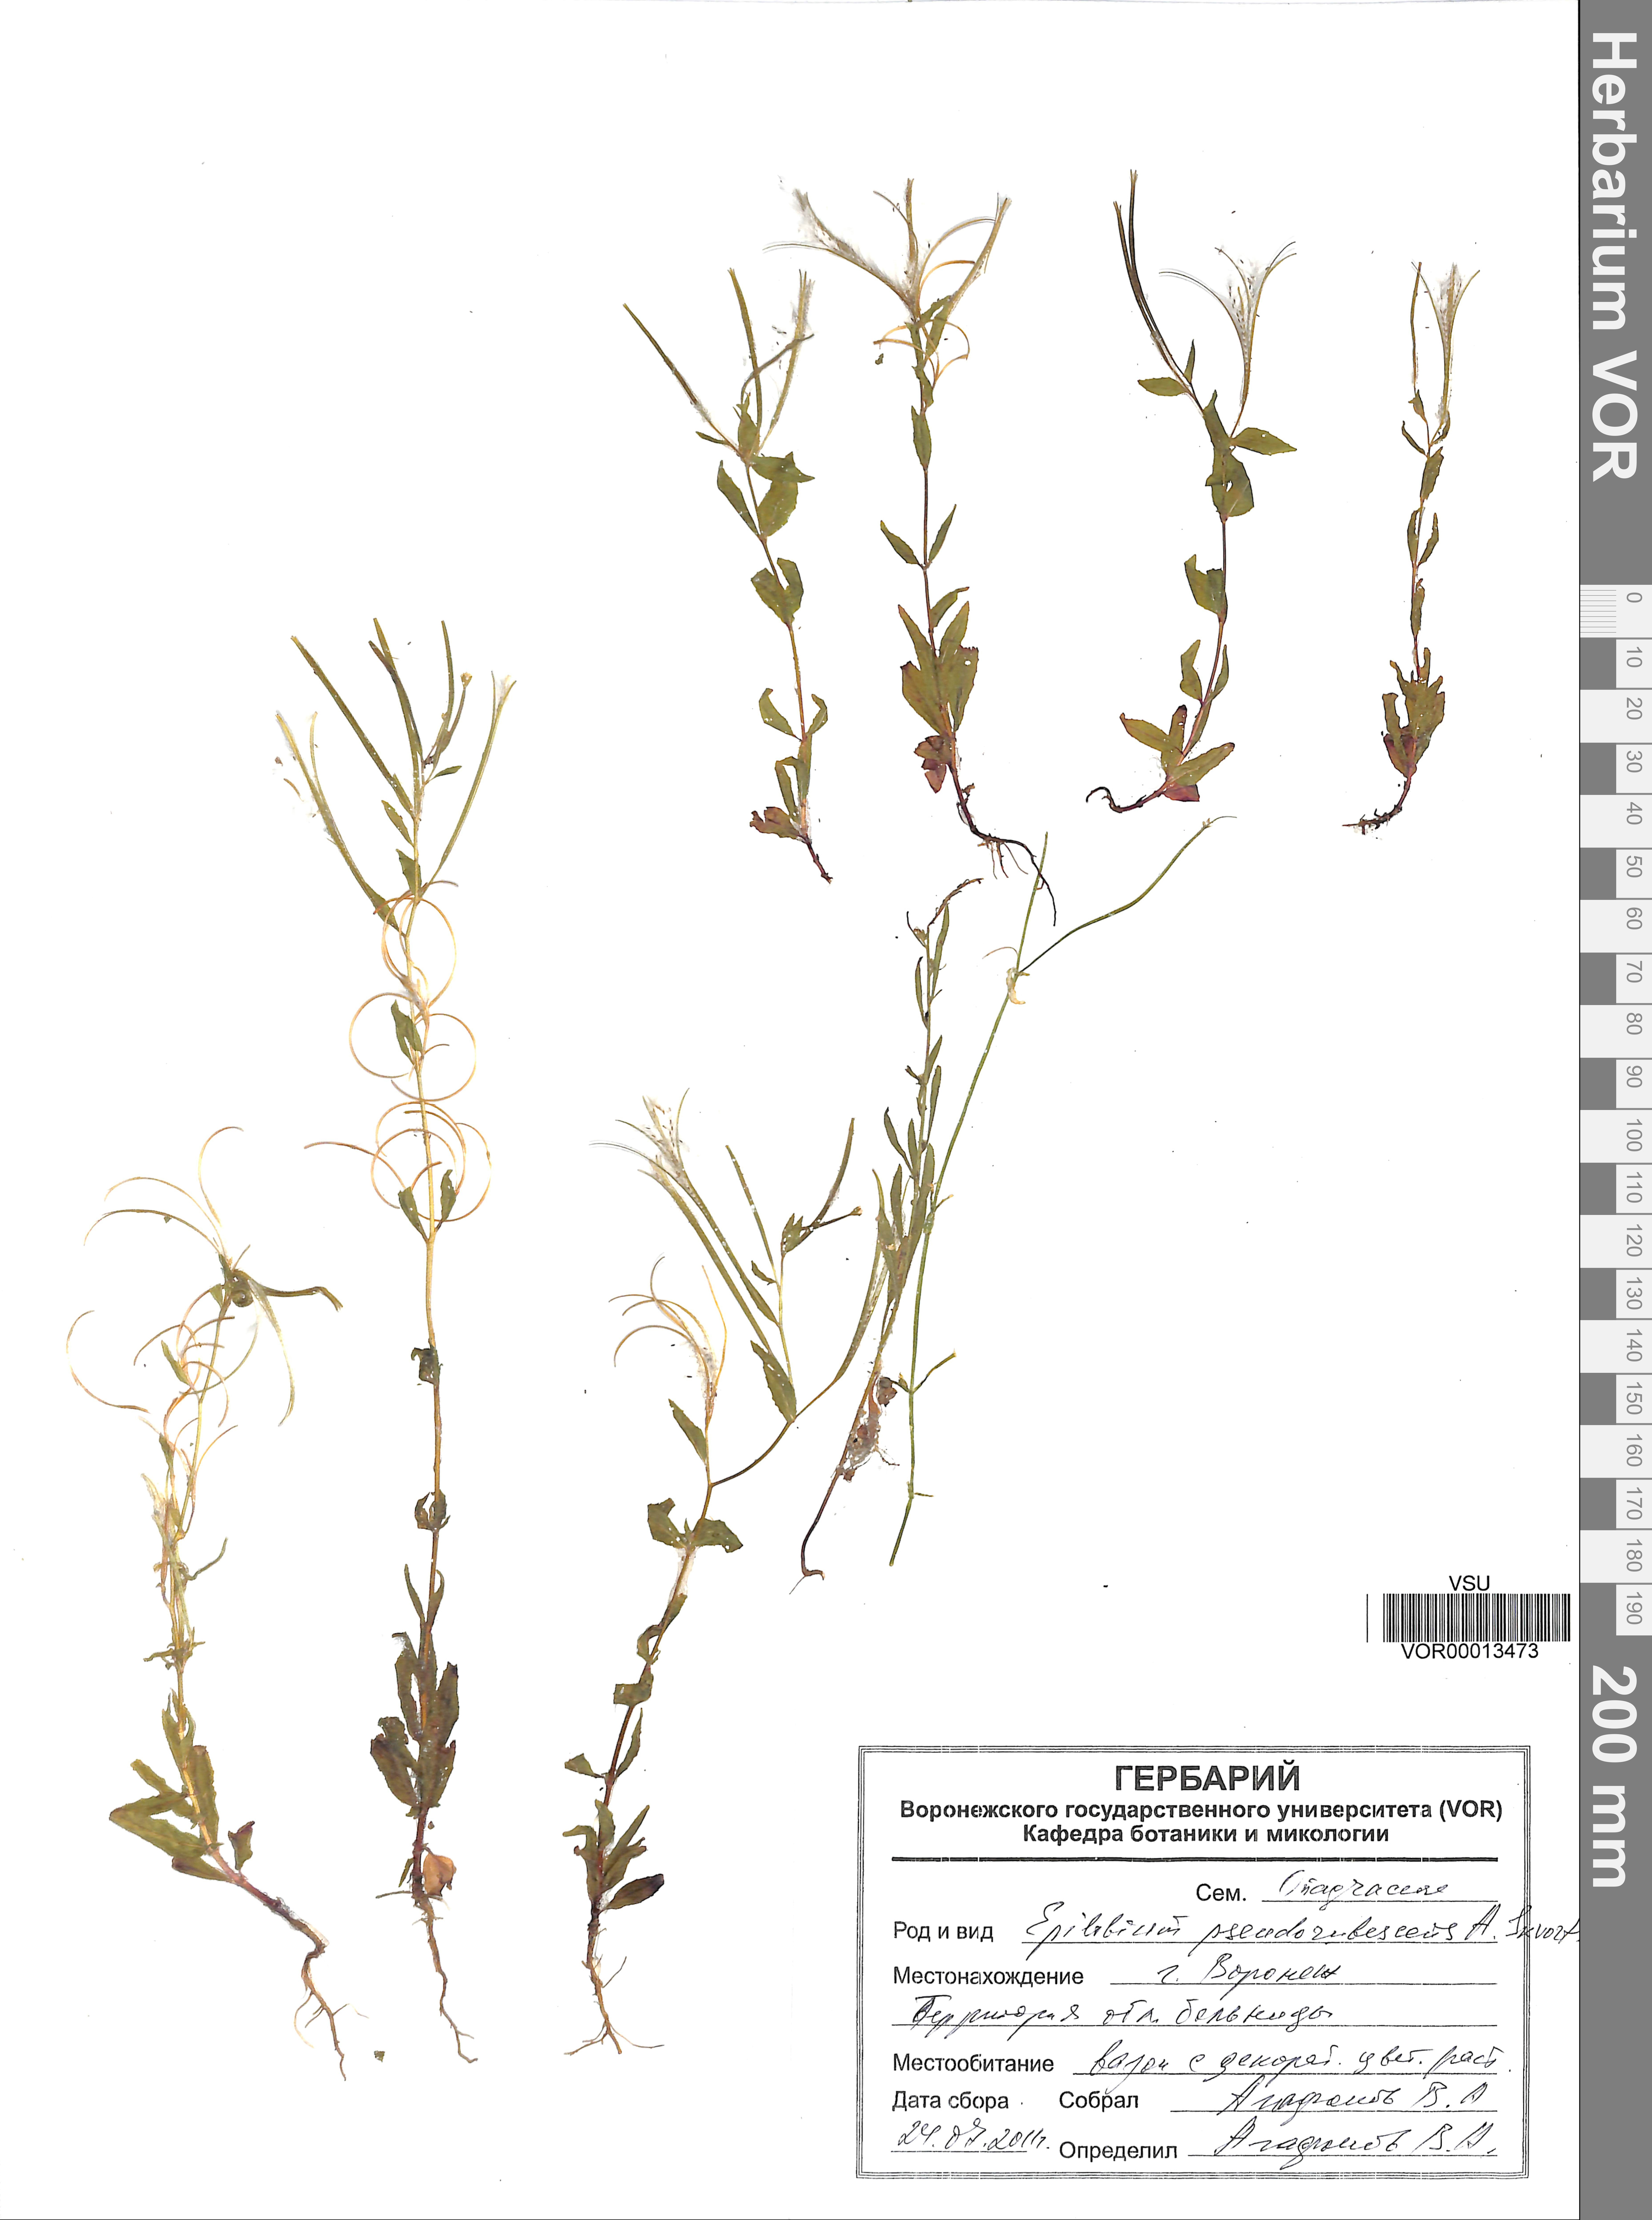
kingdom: Plantae
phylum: Tracheophyta
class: Magnoliopsida
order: Myrtales
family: Onagraceae
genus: Epilobium
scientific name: Epilobium pseudorubescens
